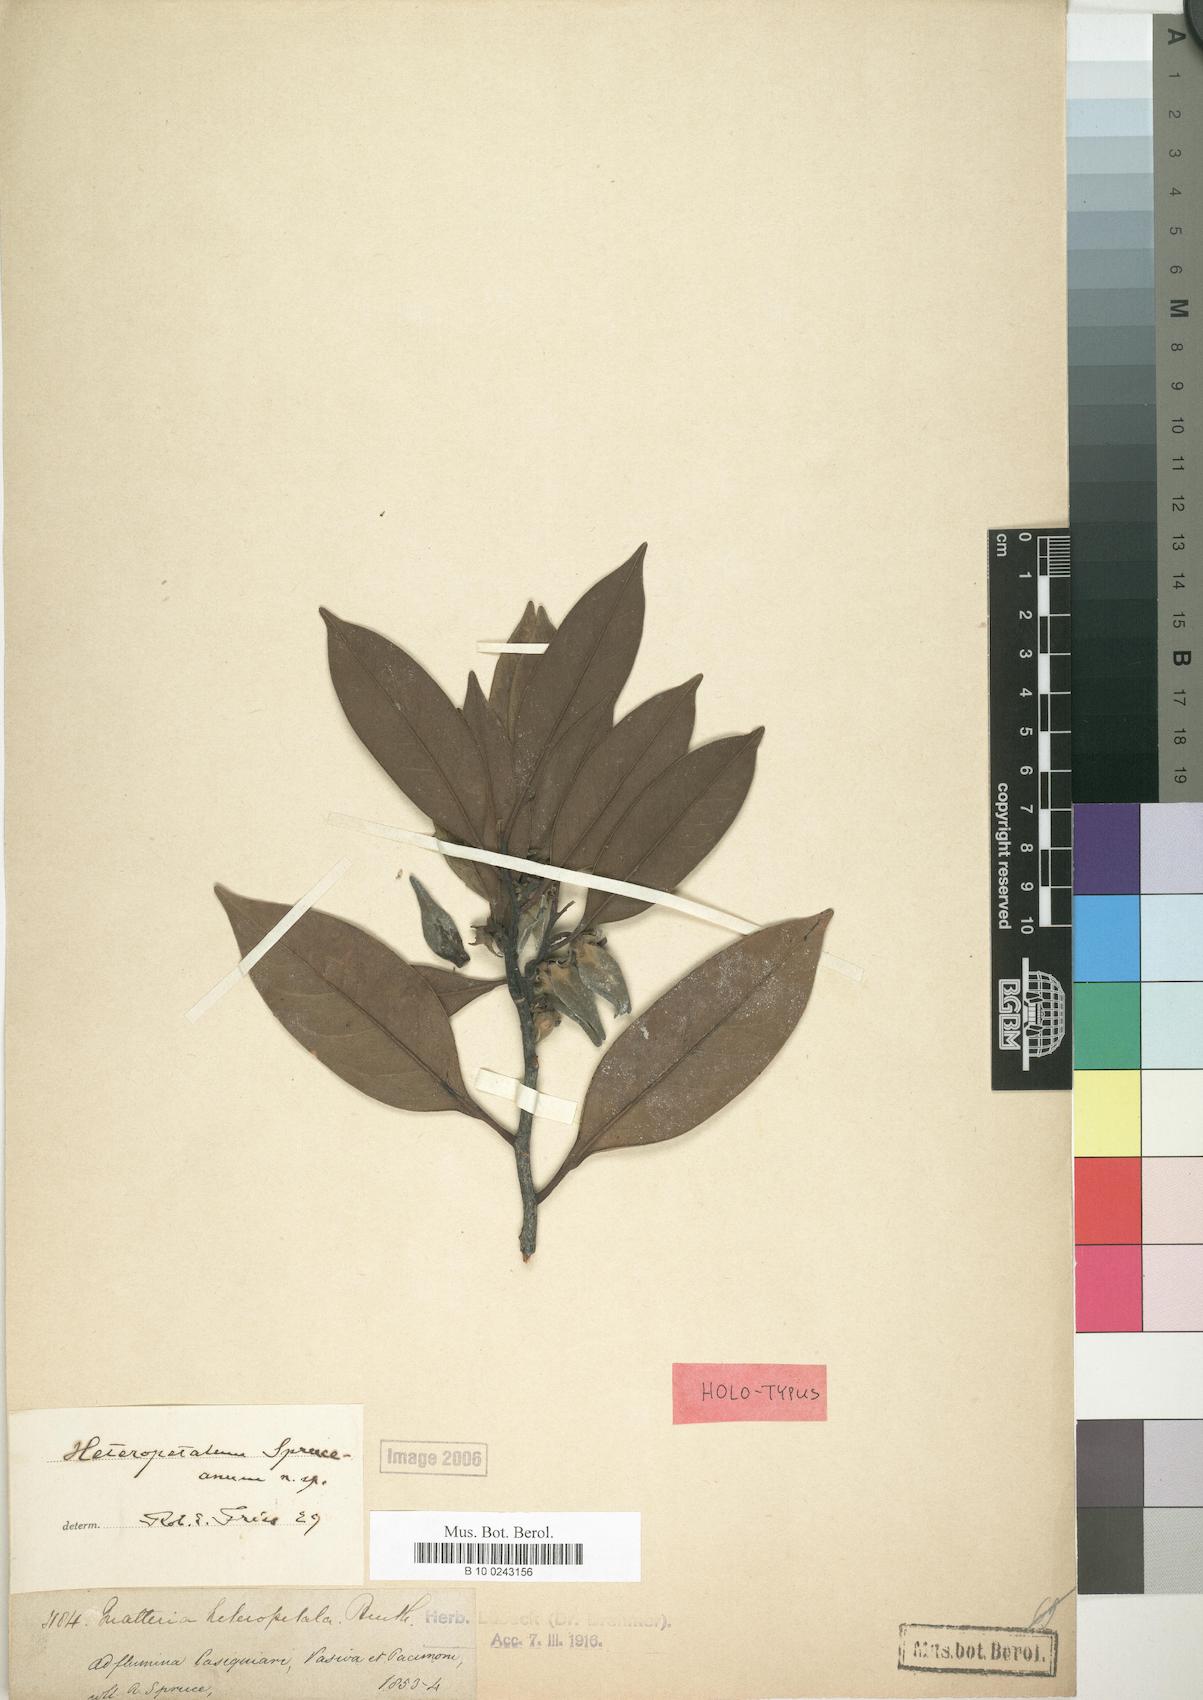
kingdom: Plantae
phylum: Tracheophyta
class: Magnoliopsida
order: Magnoliales
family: Annonaceae
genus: Guatteria
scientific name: Guatteria heteropetala
